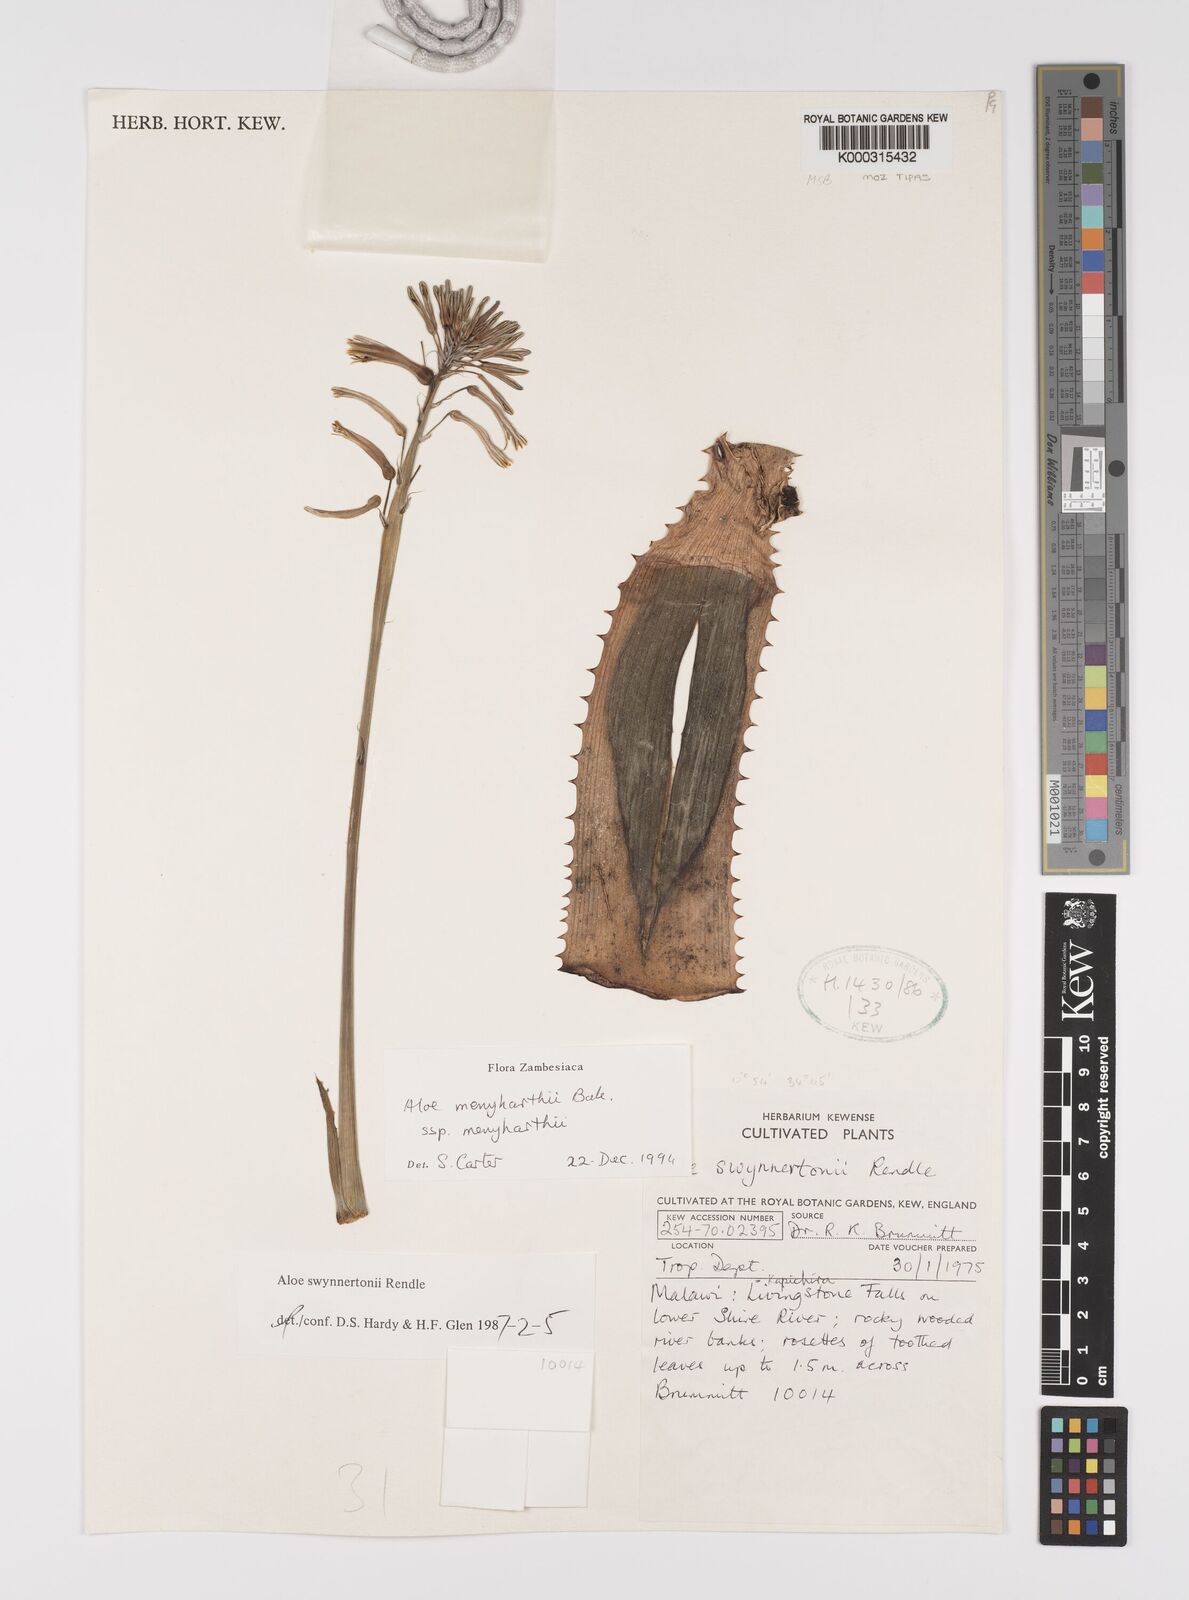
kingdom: Plantae
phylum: Tracheophyta
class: Liliopsida
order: Asparagales
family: Asphodelaceae
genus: Aloe
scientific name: Aloe menyharthii
